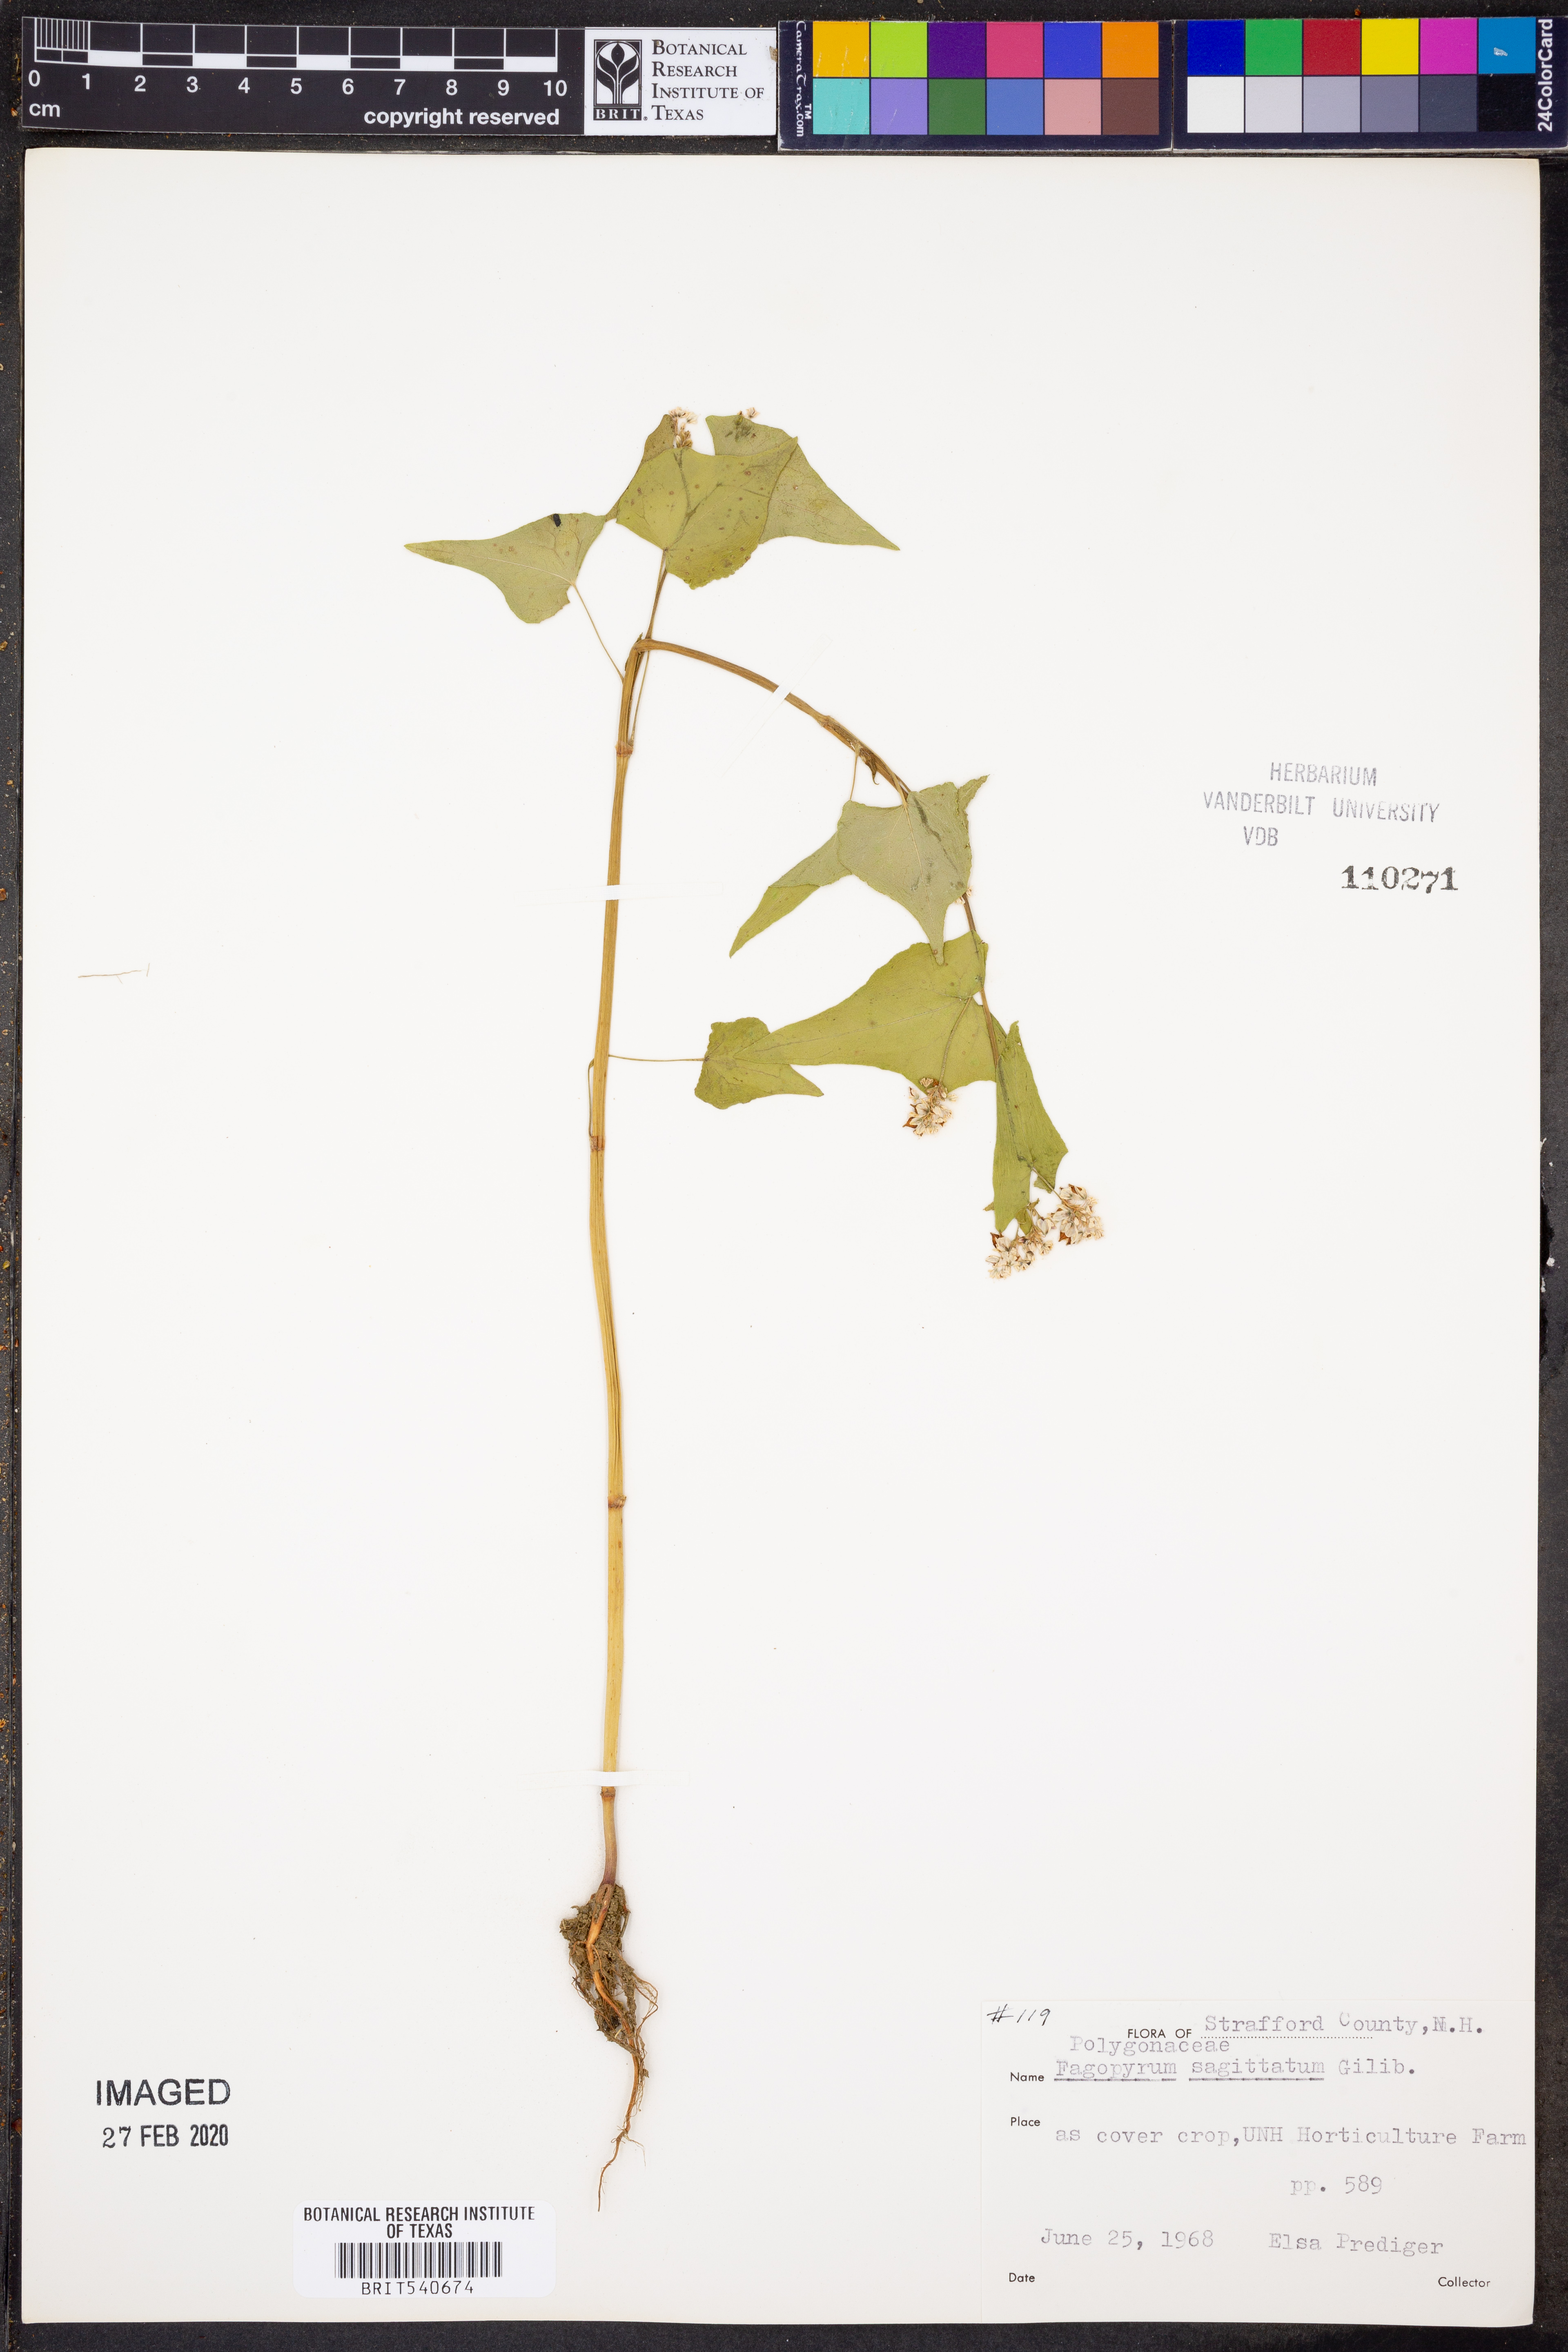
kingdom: Plantae
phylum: Tracheophyta
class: Magnoliopsida
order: Caryophyllales
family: Polygonaceae
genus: Fagopyrum
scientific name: Fagopyrum esculentum
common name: Buckwheat
